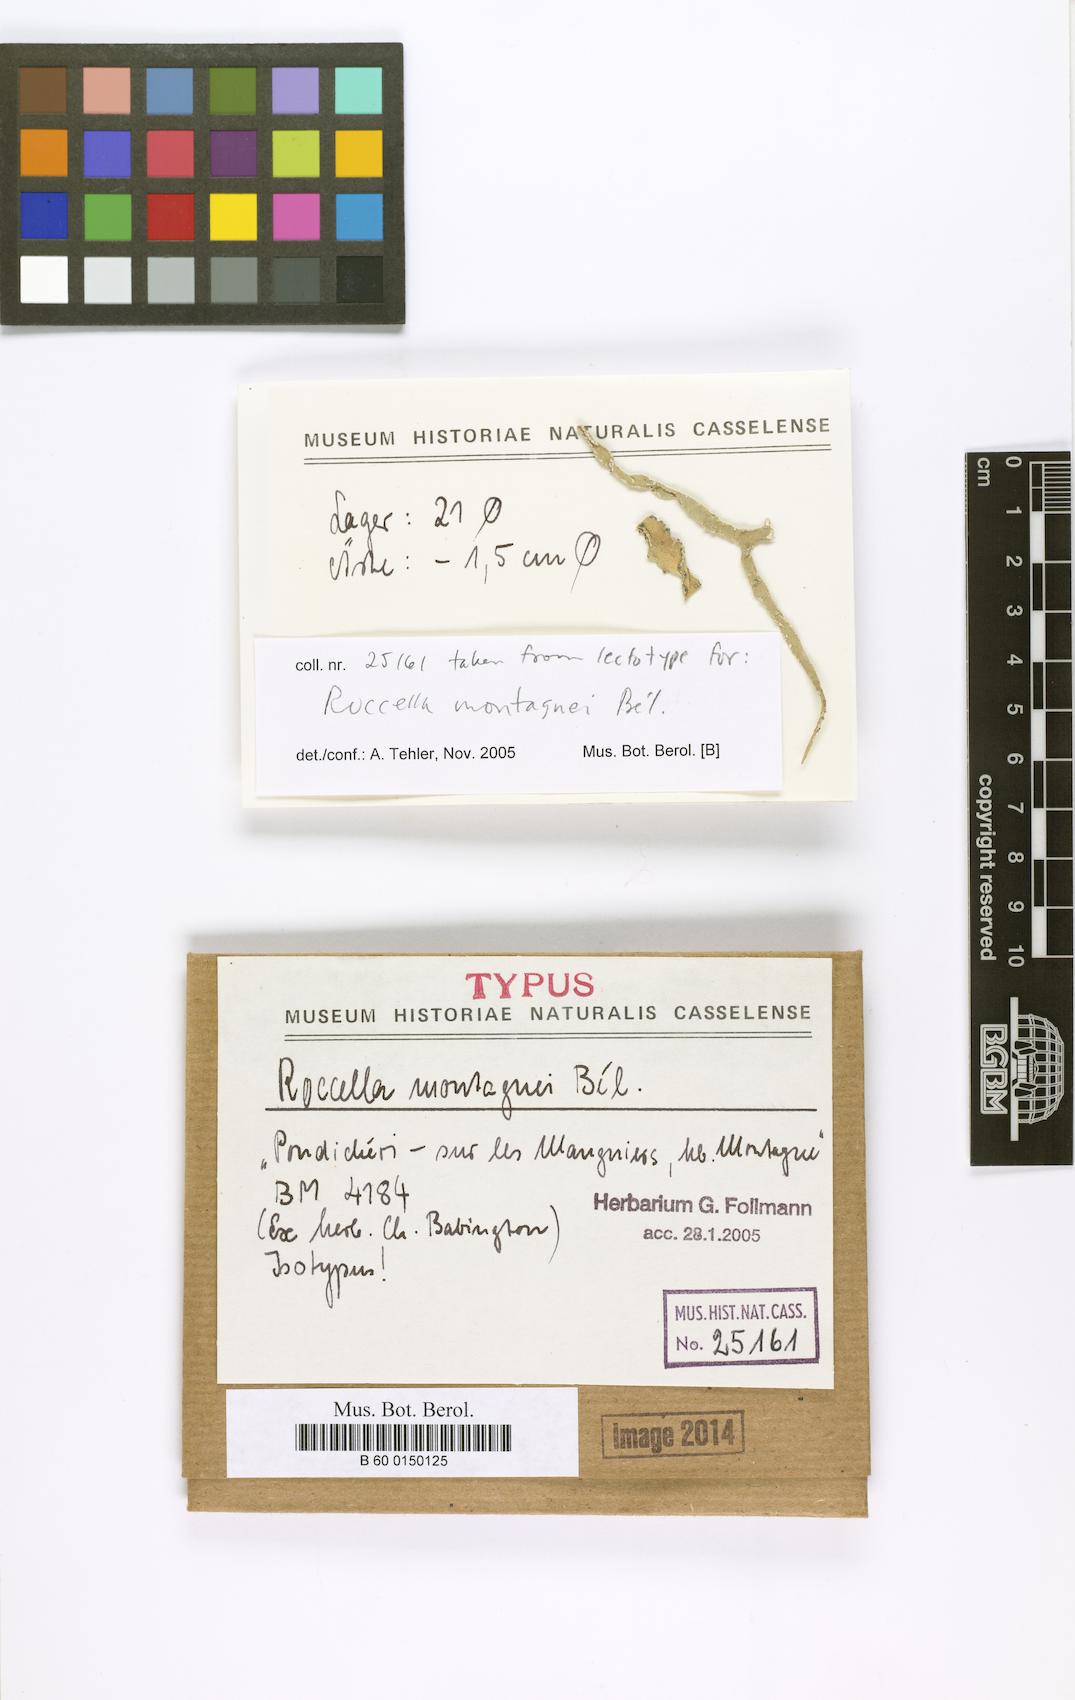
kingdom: Fungi
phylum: Ascomycota
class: Arthoniomycetes
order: Arthoniales
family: Roccellaceae
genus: Roccella
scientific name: Roccella montagnei
